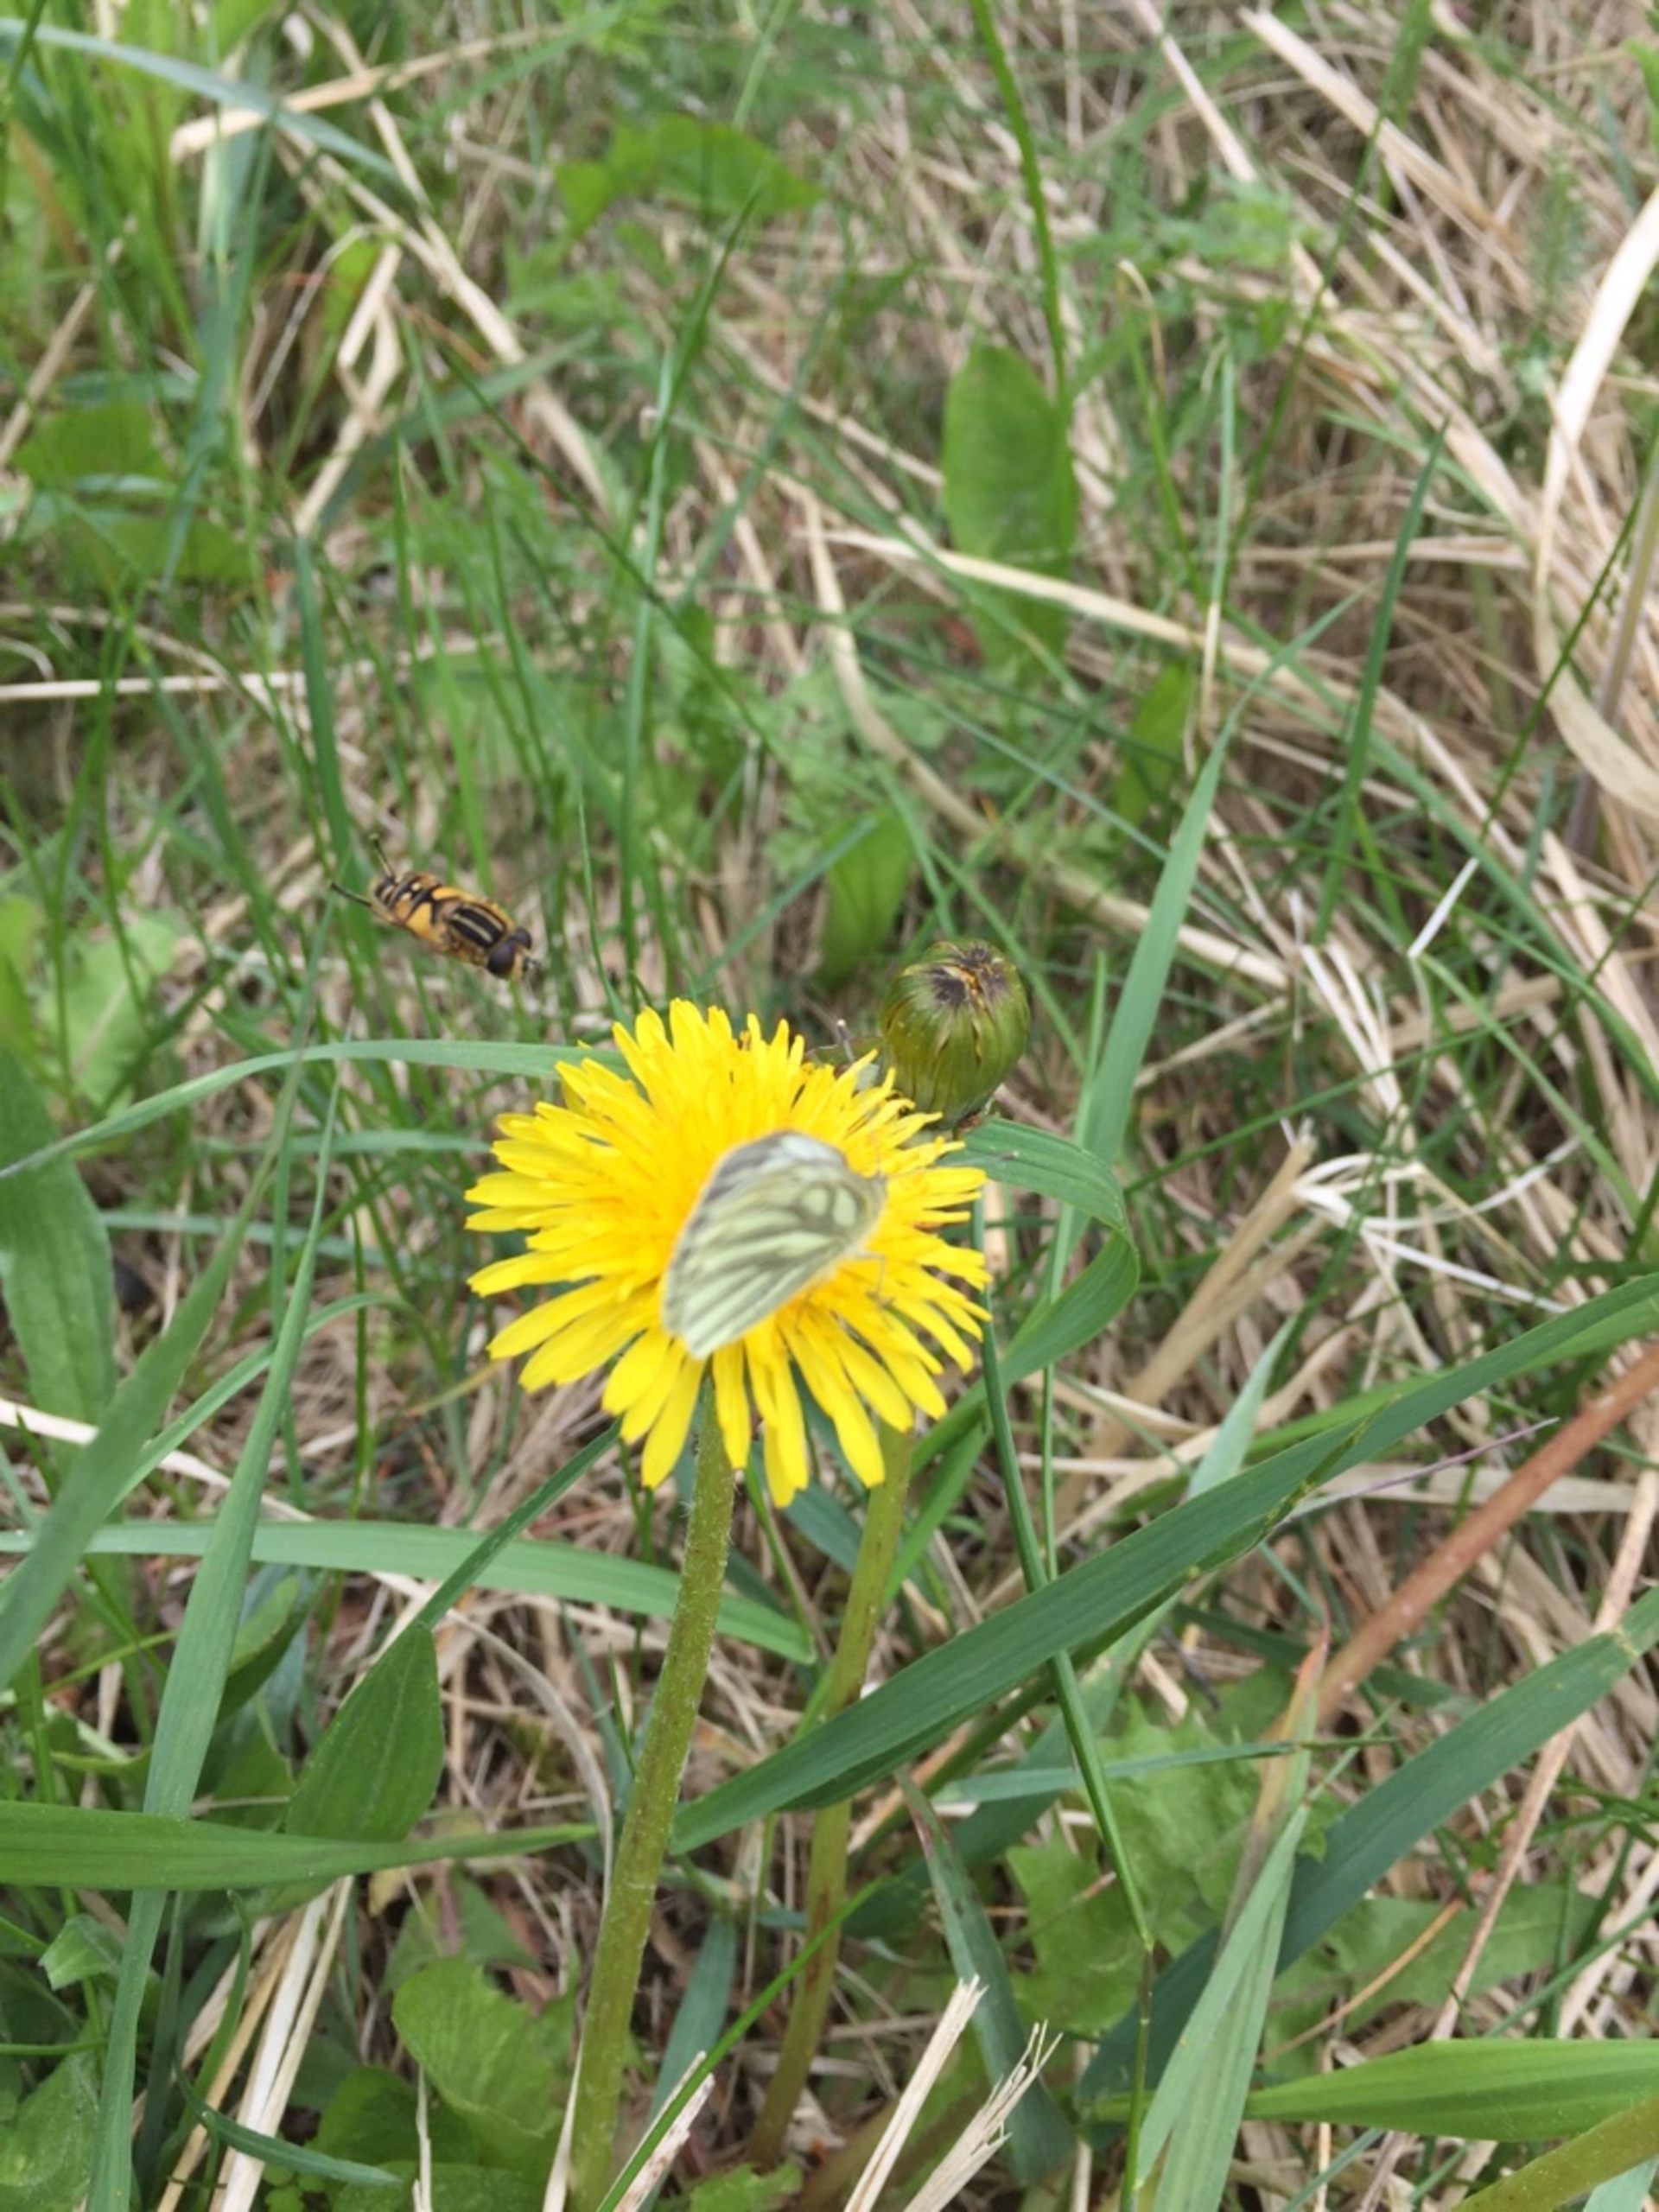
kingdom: Animalia
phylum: Arthropoda
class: Insecta
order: Lepidoptera
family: Pieridae
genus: Pieris
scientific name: Pieris napi
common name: Grønåret kålsommerfugl
